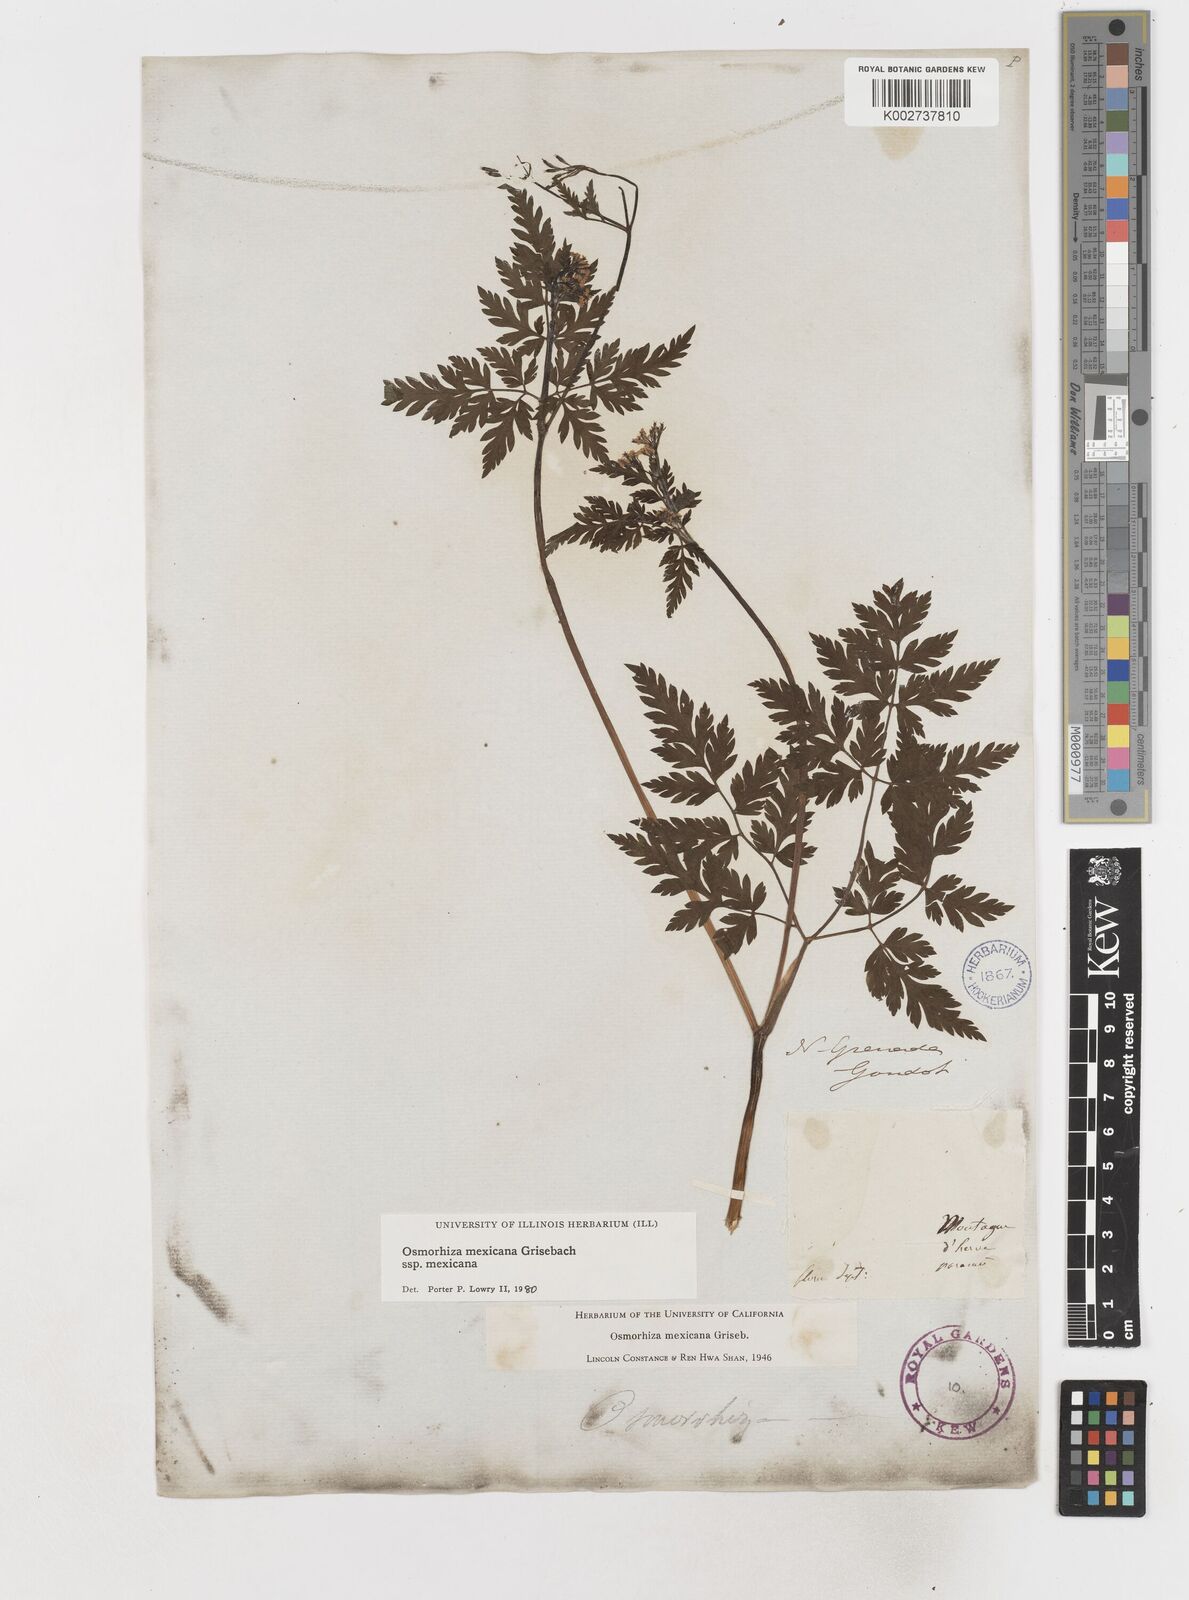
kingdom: Plantae
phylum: Tracheophyta
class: Magnoliopsida
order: Apiales
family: Apiaceae
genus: Osmorhiza
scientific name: Osmorhiza mexicana
